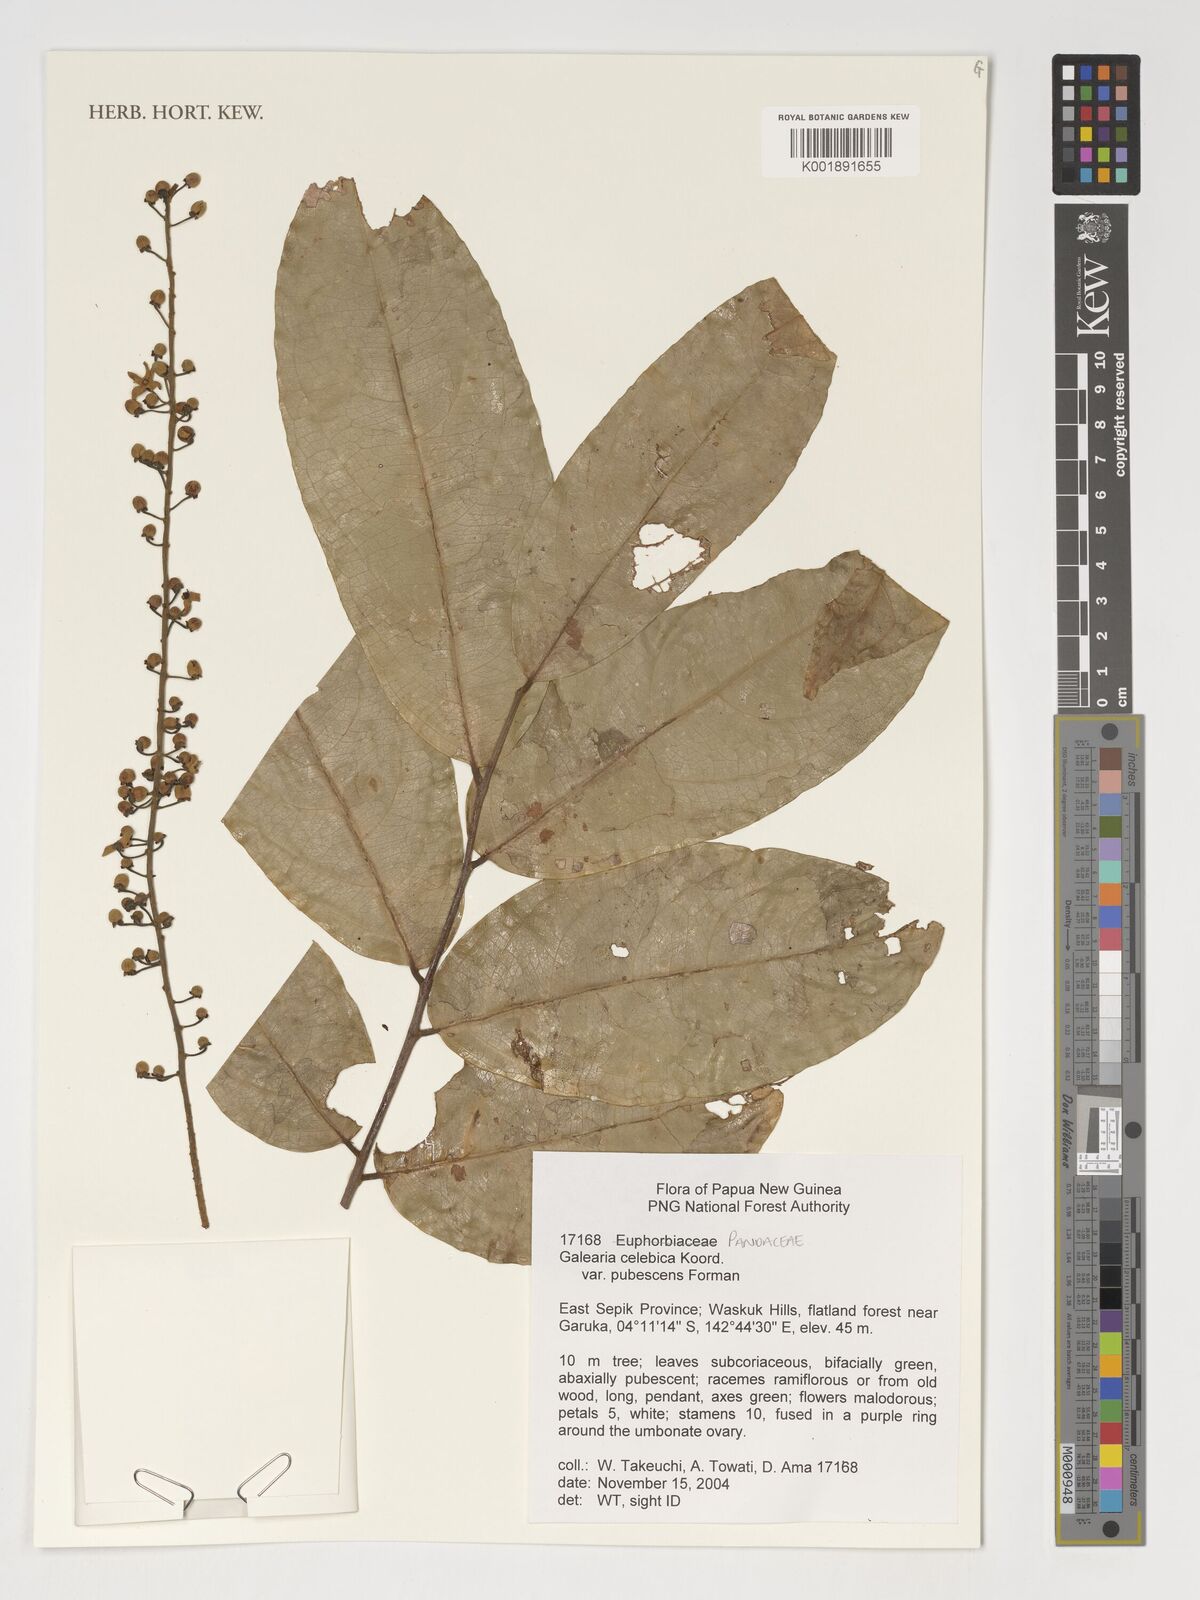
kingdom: Plantae
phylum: Tracheophyta
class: Magnoliopsida
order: Malpighiales
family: Pandaceae
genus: Galearia
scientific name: Galearia celebica
